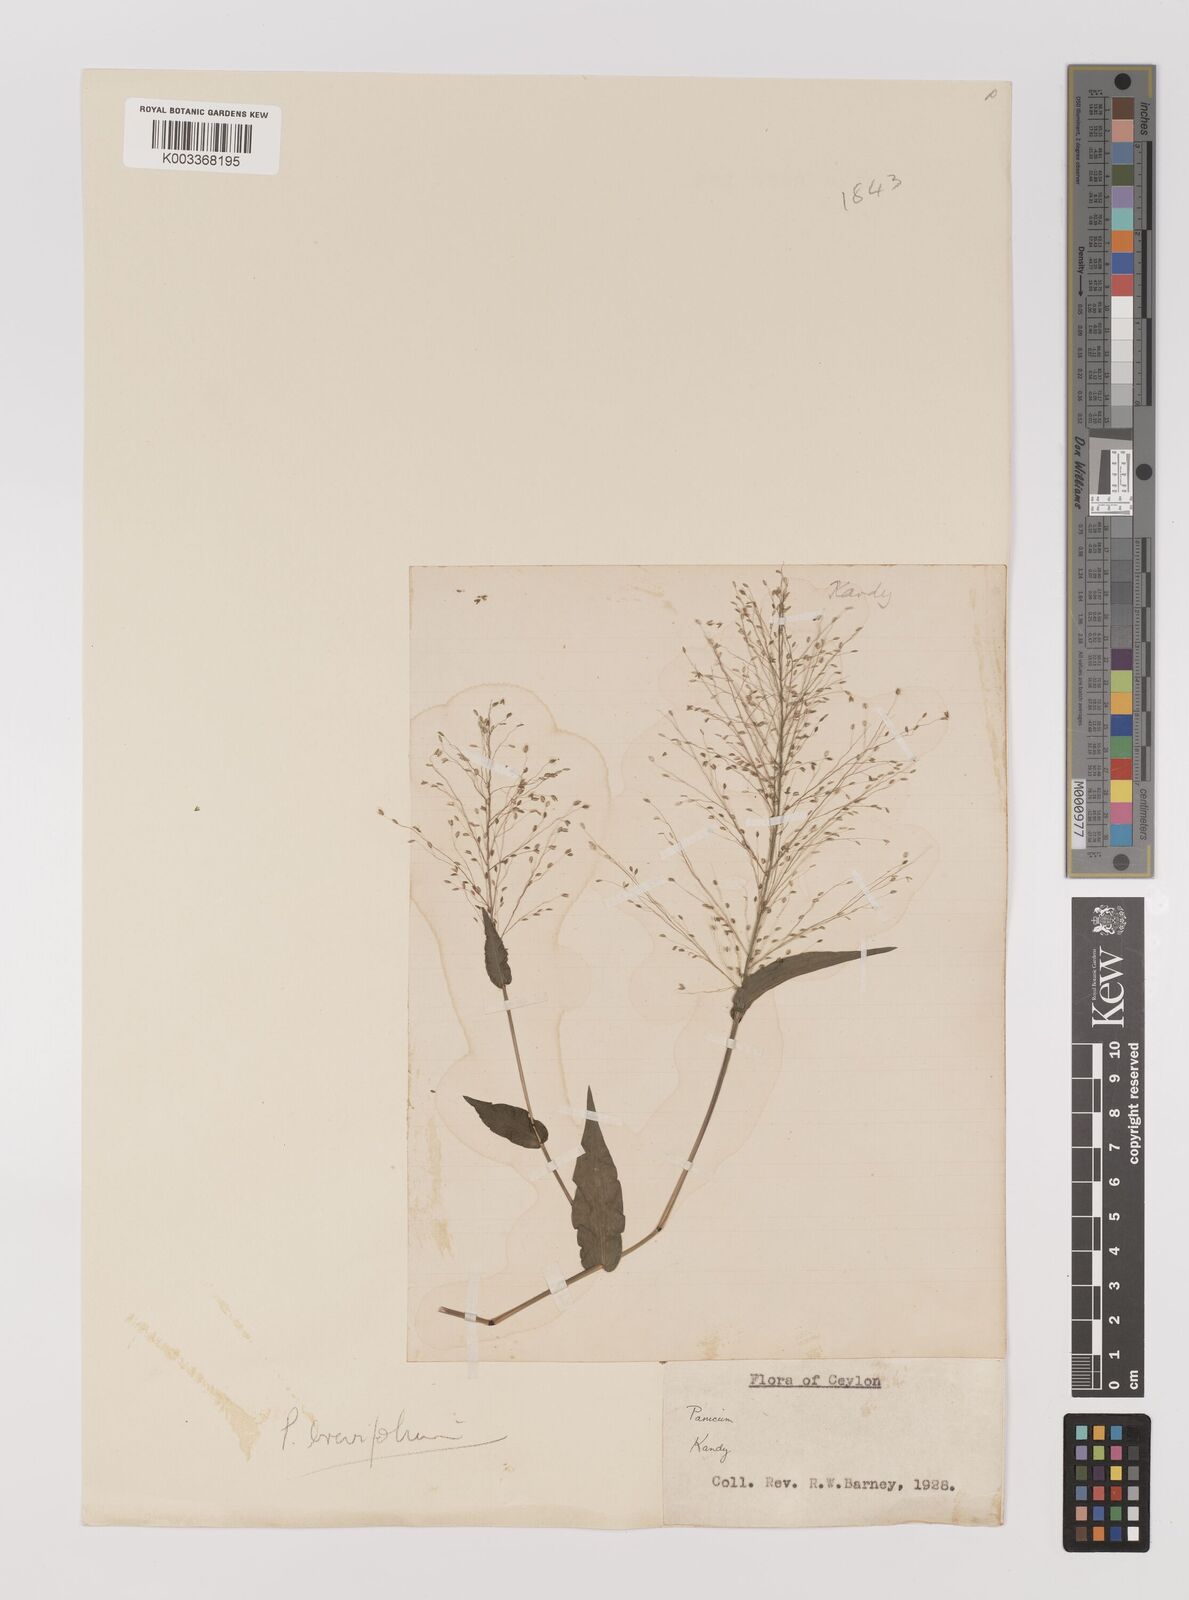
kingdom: Plantae
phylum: Tracheophyta
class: Liliopsida
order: Poales
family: Poaceae
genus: Panicum
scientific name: Panicum brevifolium
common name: Shortleaf panic grass
